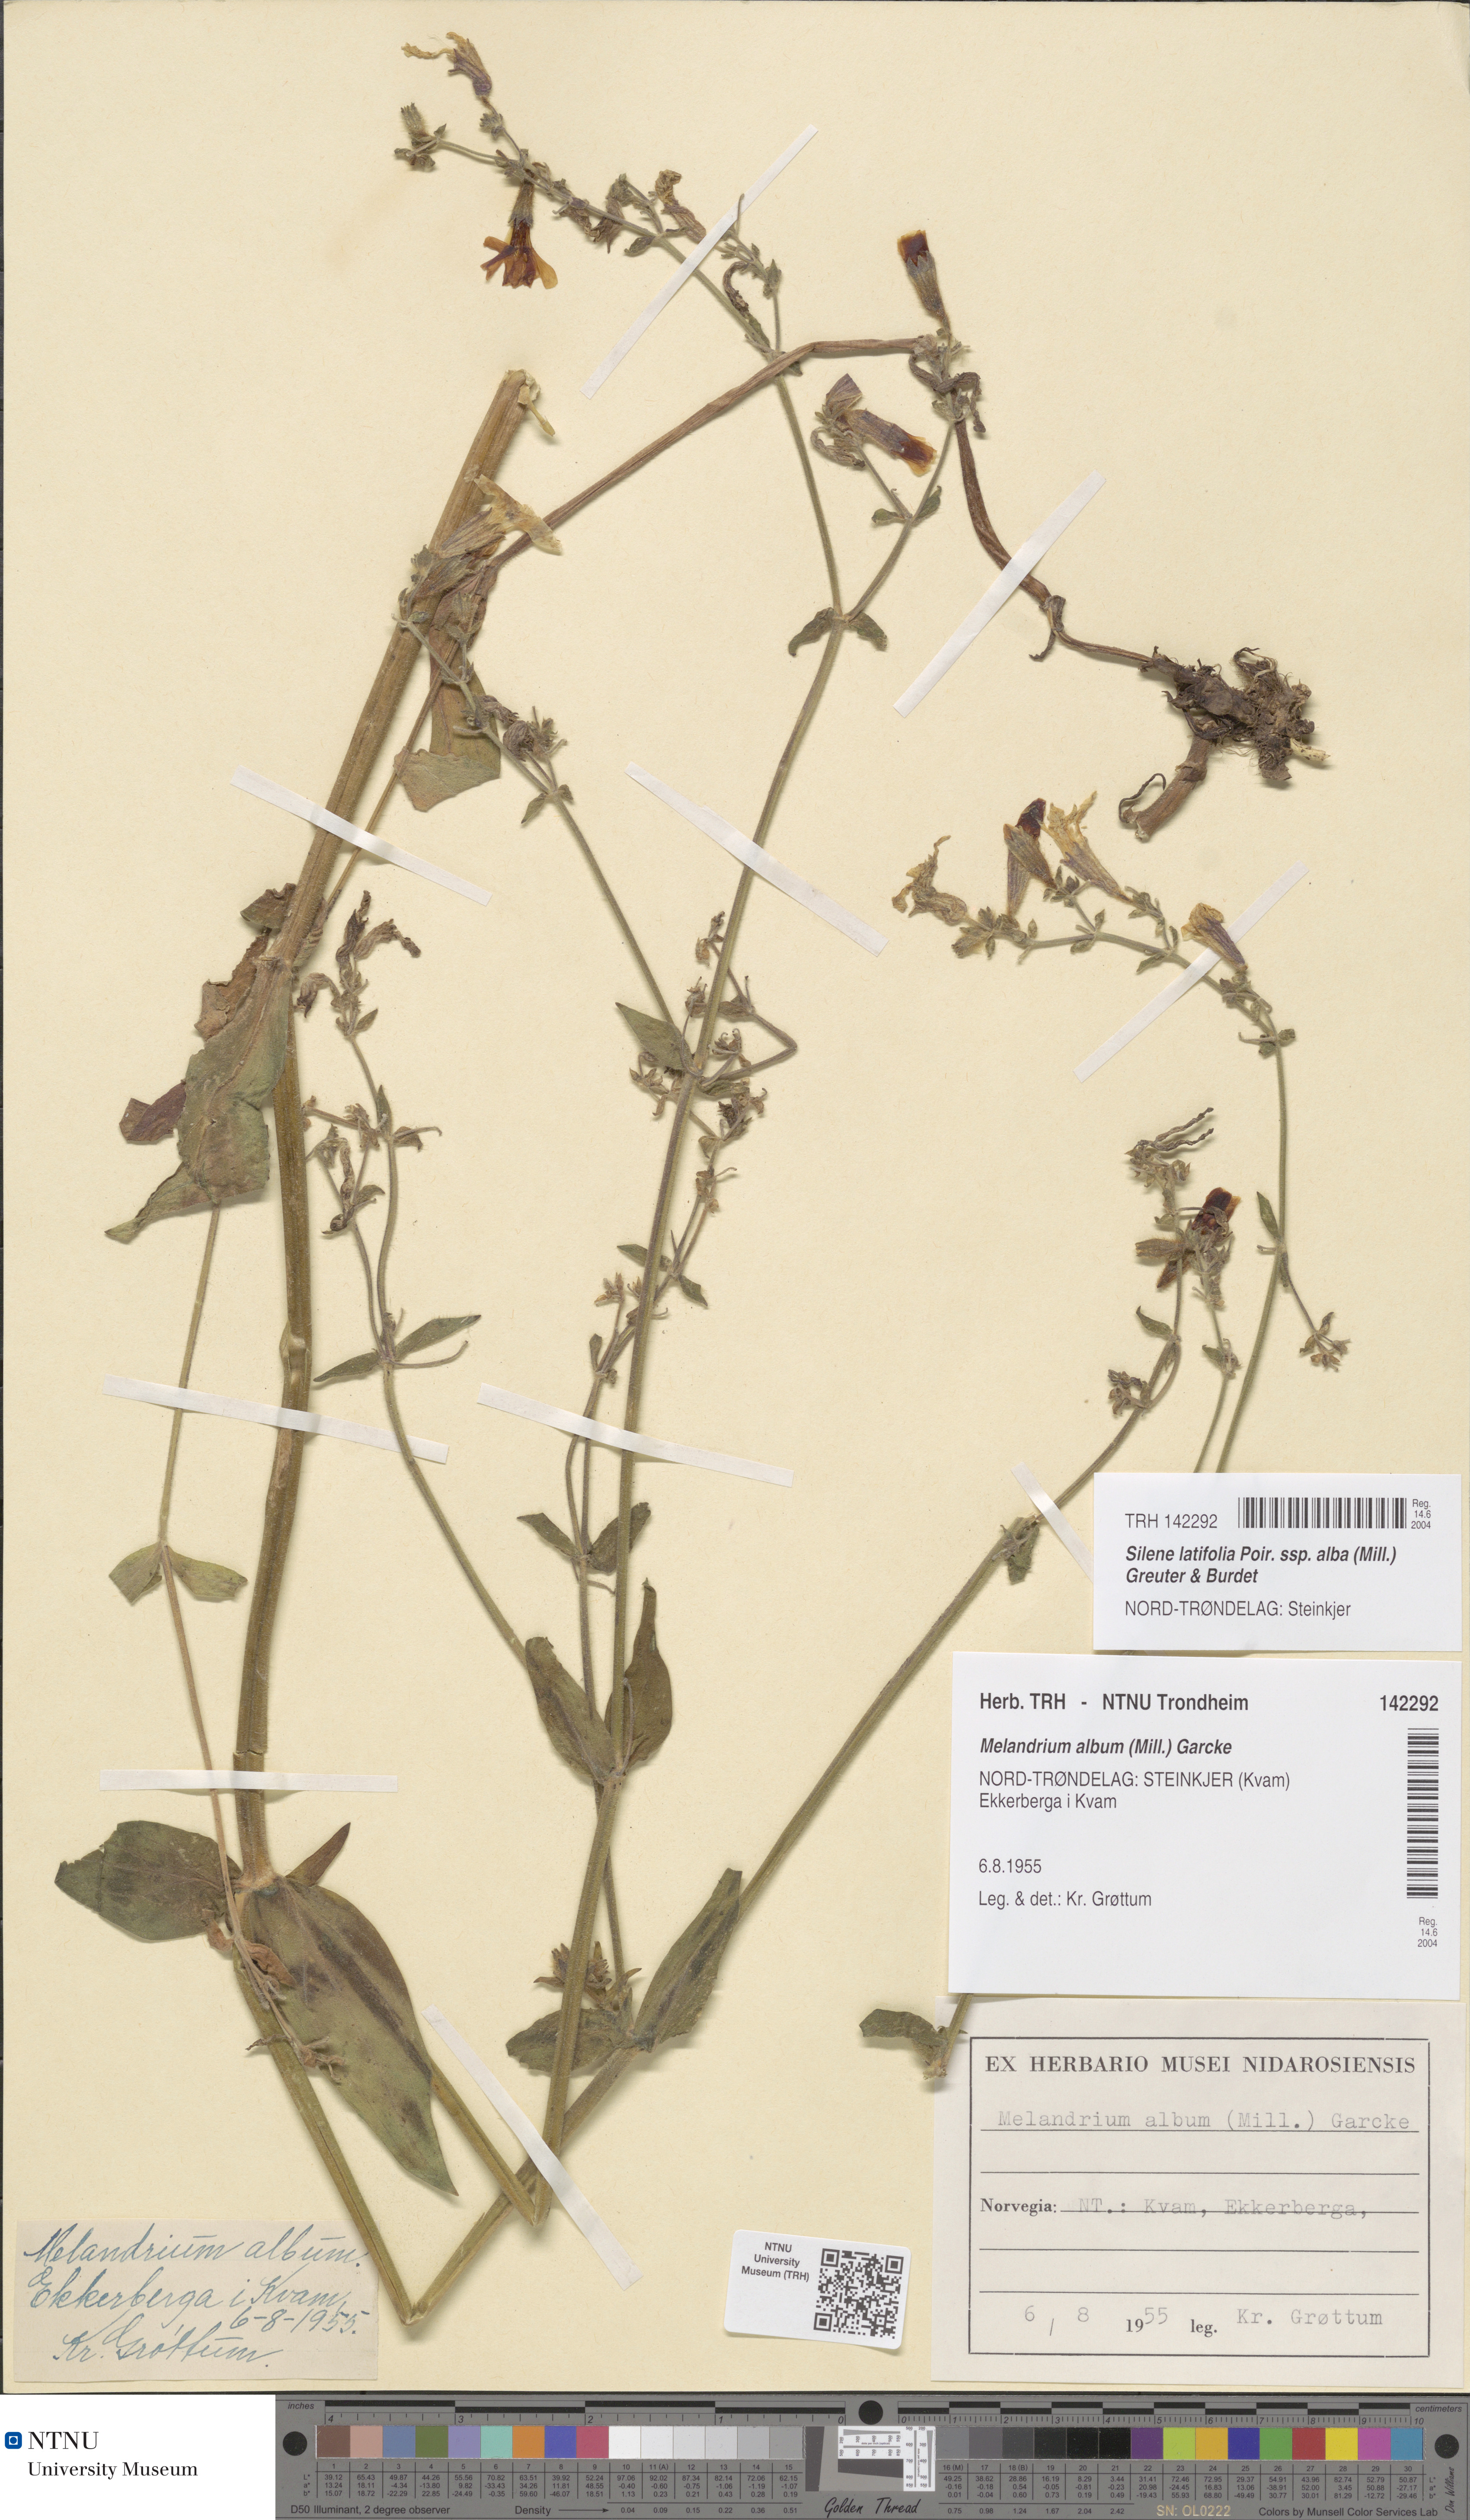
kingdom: Plantae
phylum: Tracheophyta
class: Magnoliopsida
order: Caryophyllales
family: Caryophyllaceae
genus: Silene
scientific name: Silene latifolia
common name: White campion
